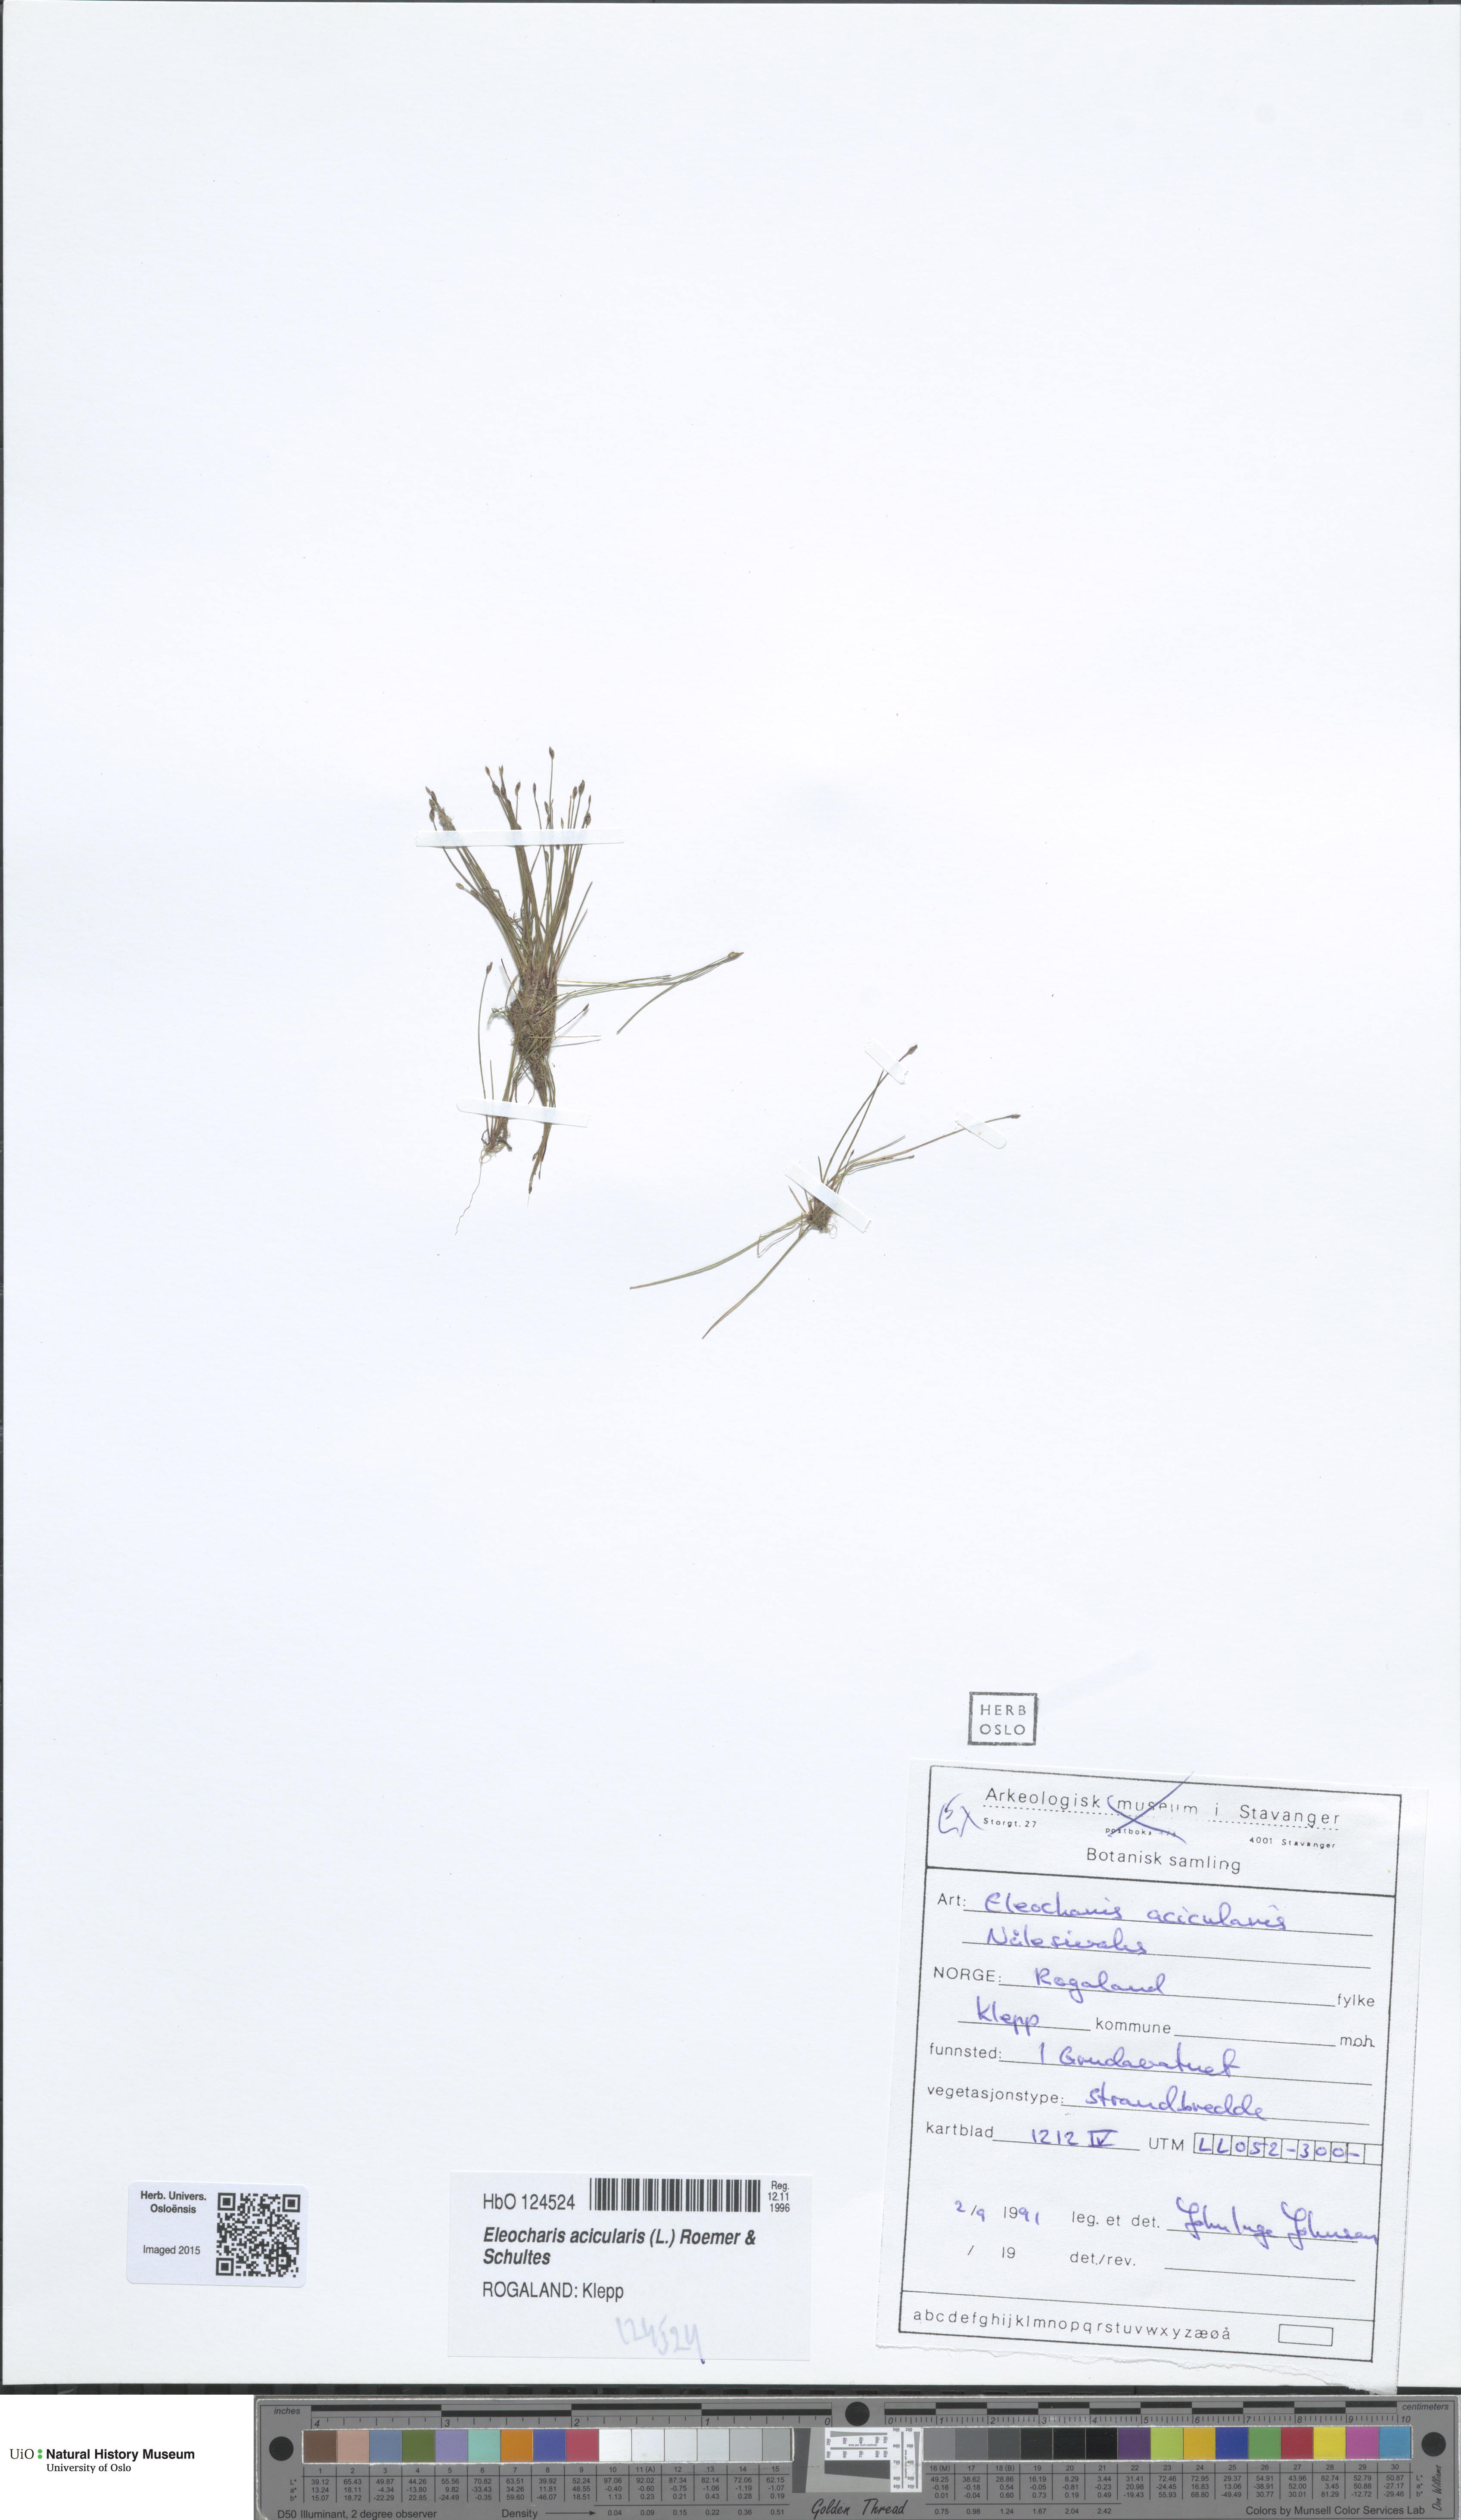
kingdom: Plantae
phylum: Tracheophyta
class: Liliopsida
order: Poales
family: Cyperaceae
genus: Eleocharis
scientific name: Eleocharis acicularis
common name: Needle spike-rush
